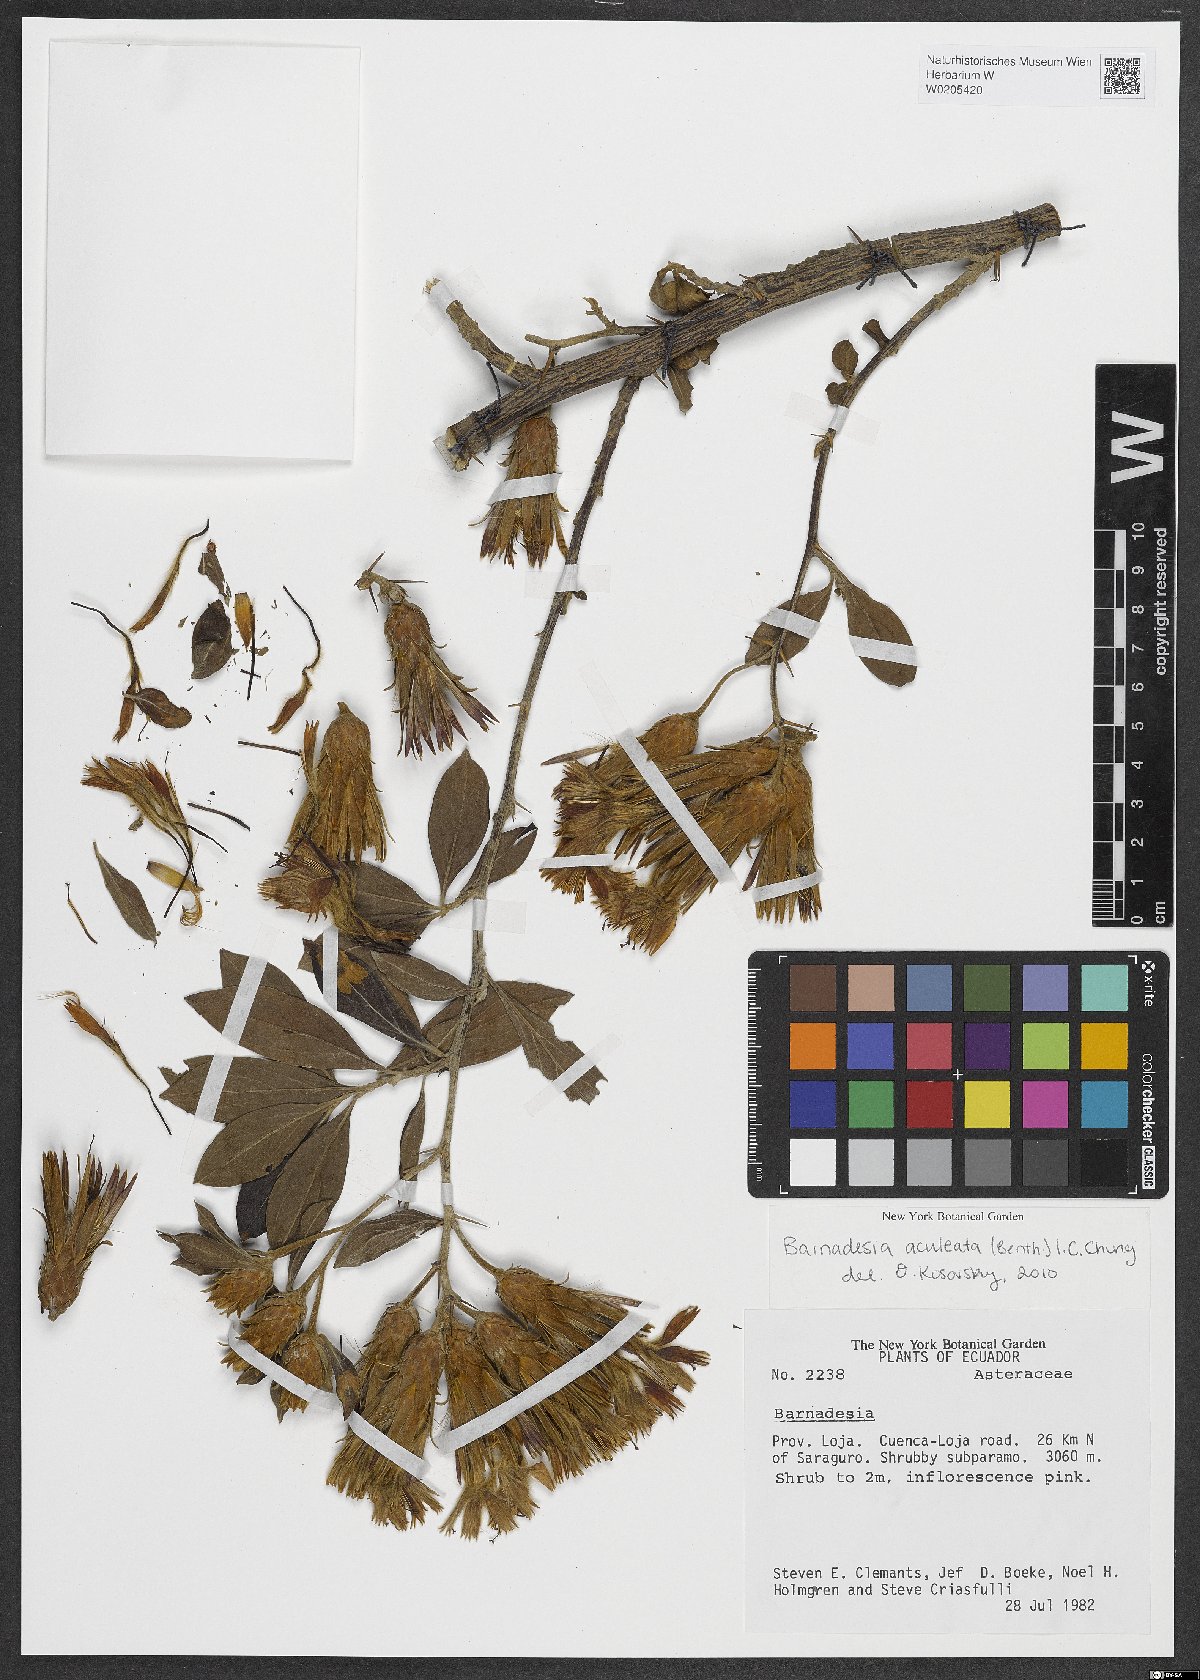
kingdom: Plantae
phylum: Tracheophyta
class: Magnoliopsida
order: Asterales
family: Asteraceae
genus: Barnadesia
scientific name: Barnadesia aculeata
